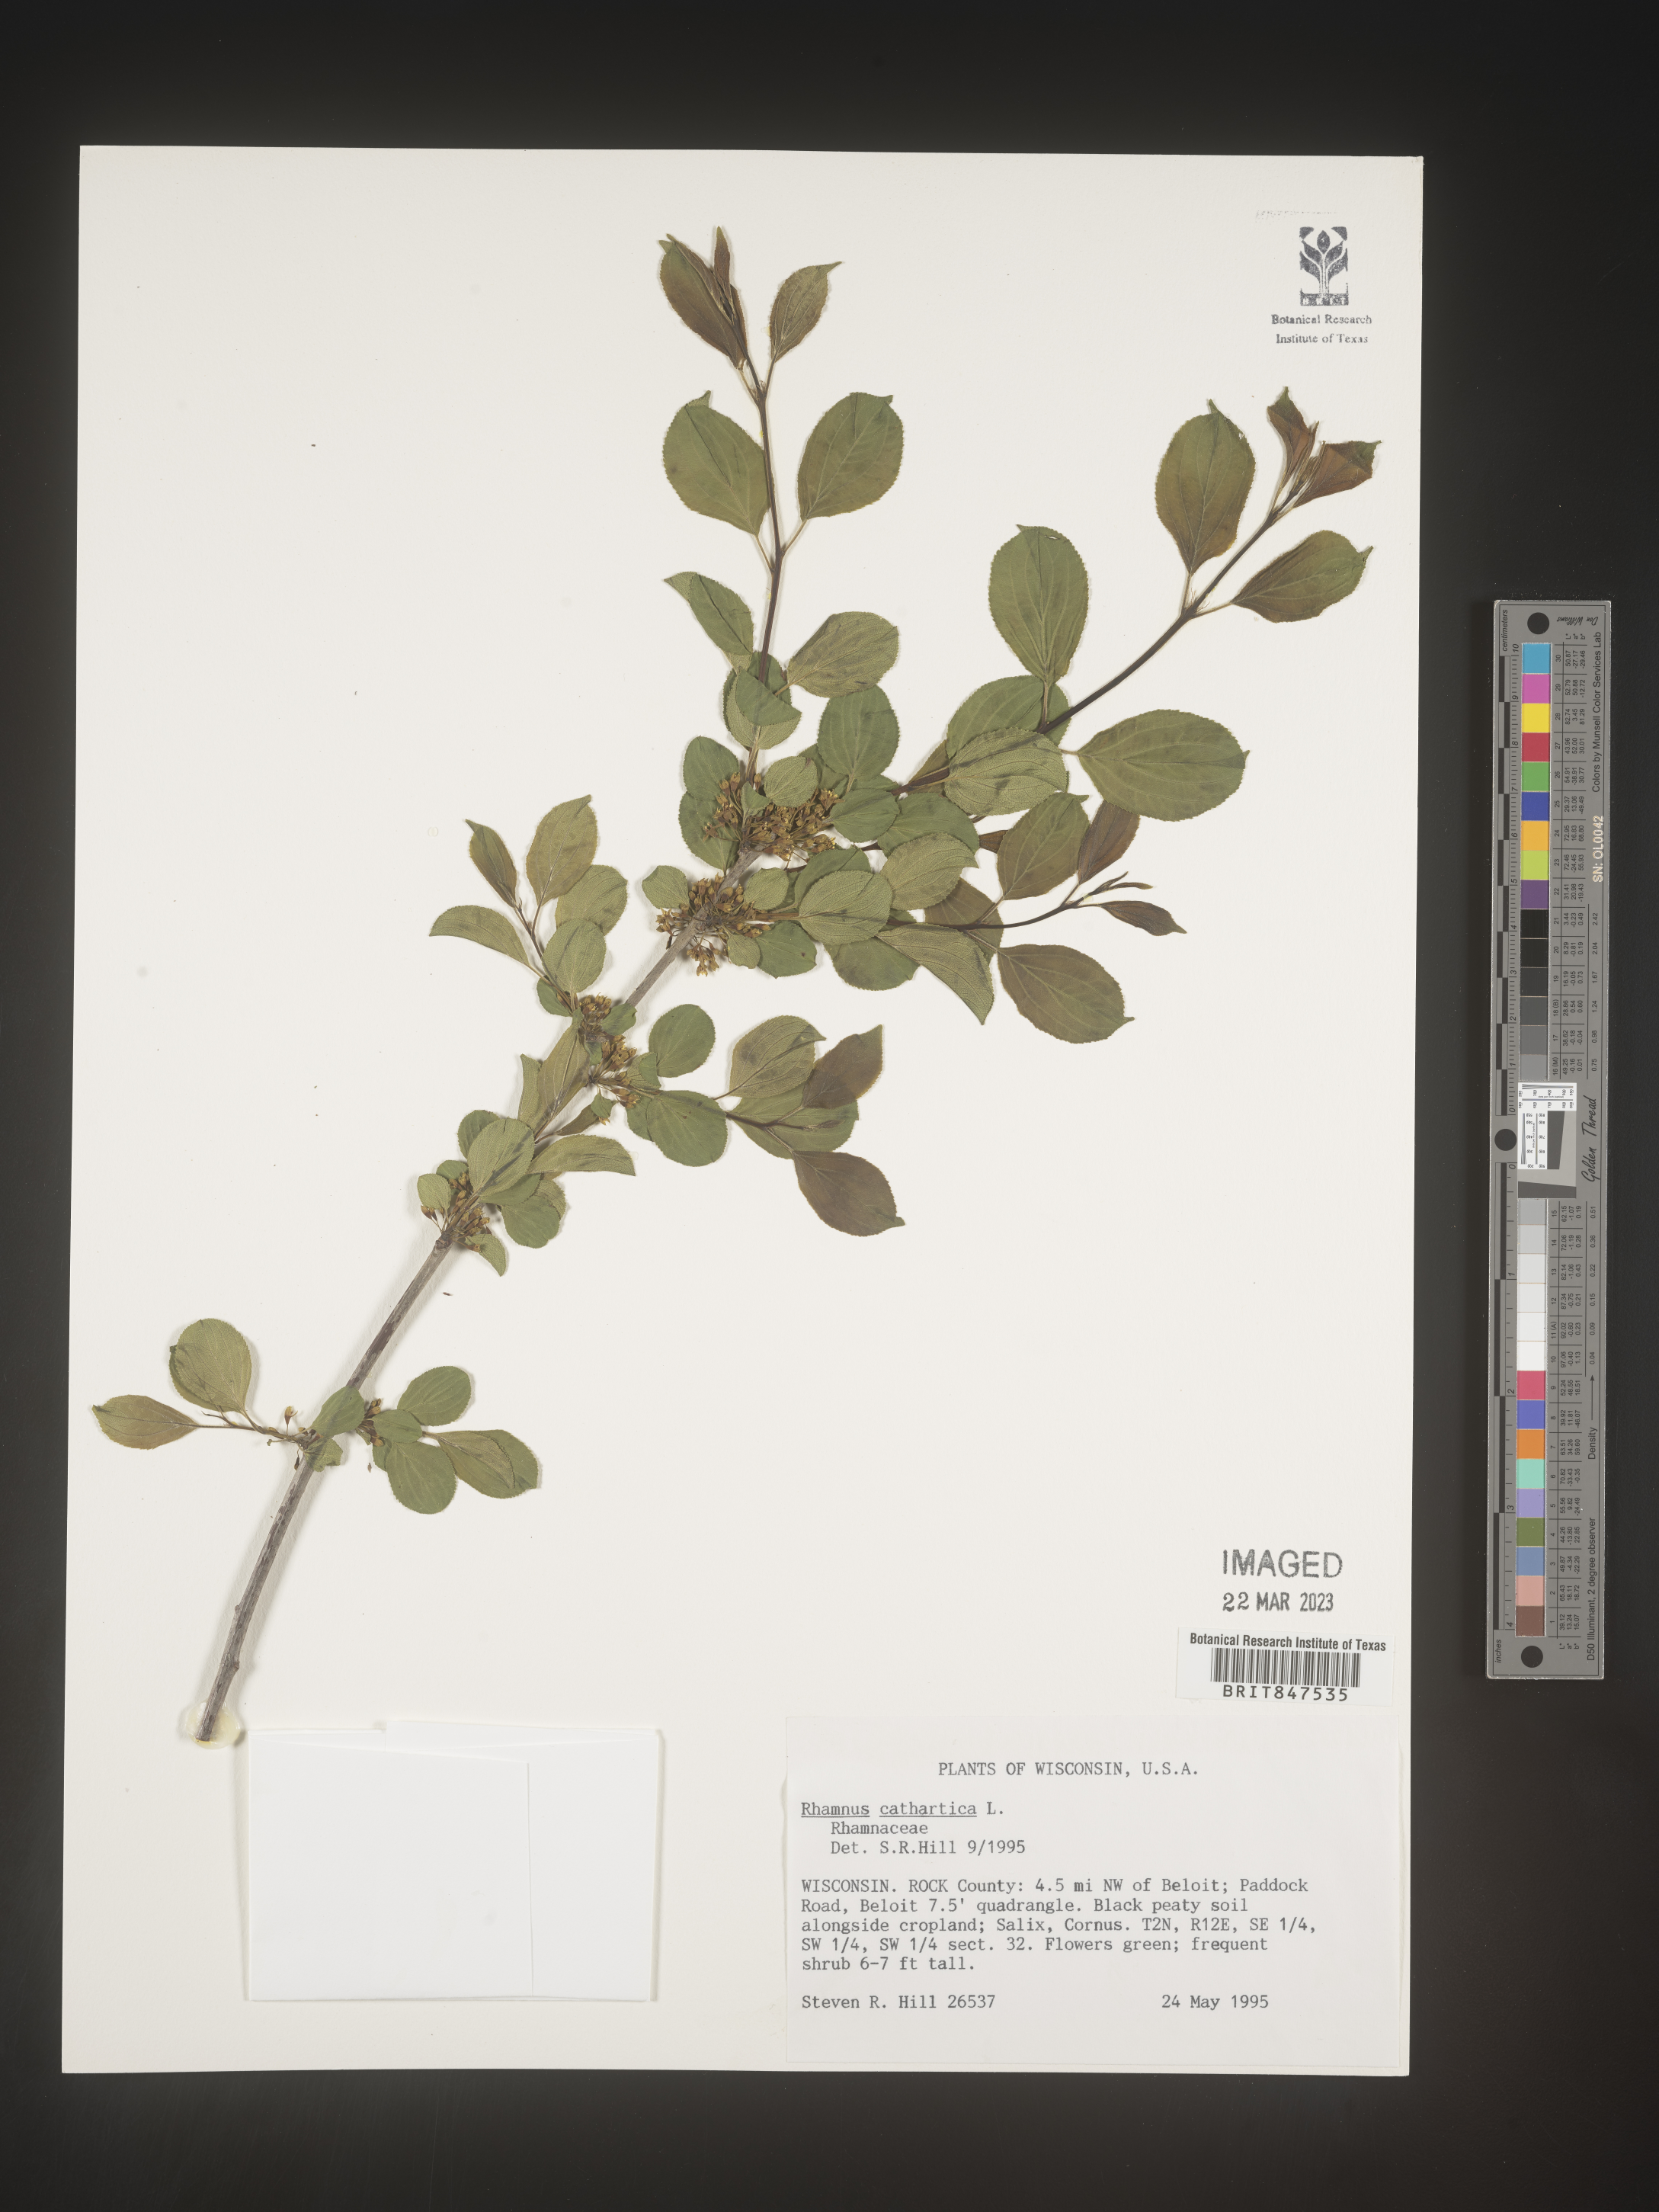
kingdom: Plantae
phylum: Tracheophyta
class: Magnoliopsida
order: Rosales
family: Rhamnaceae
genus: Rhamnus
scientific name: Rhamnus cathartica
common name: Common buckthorn
